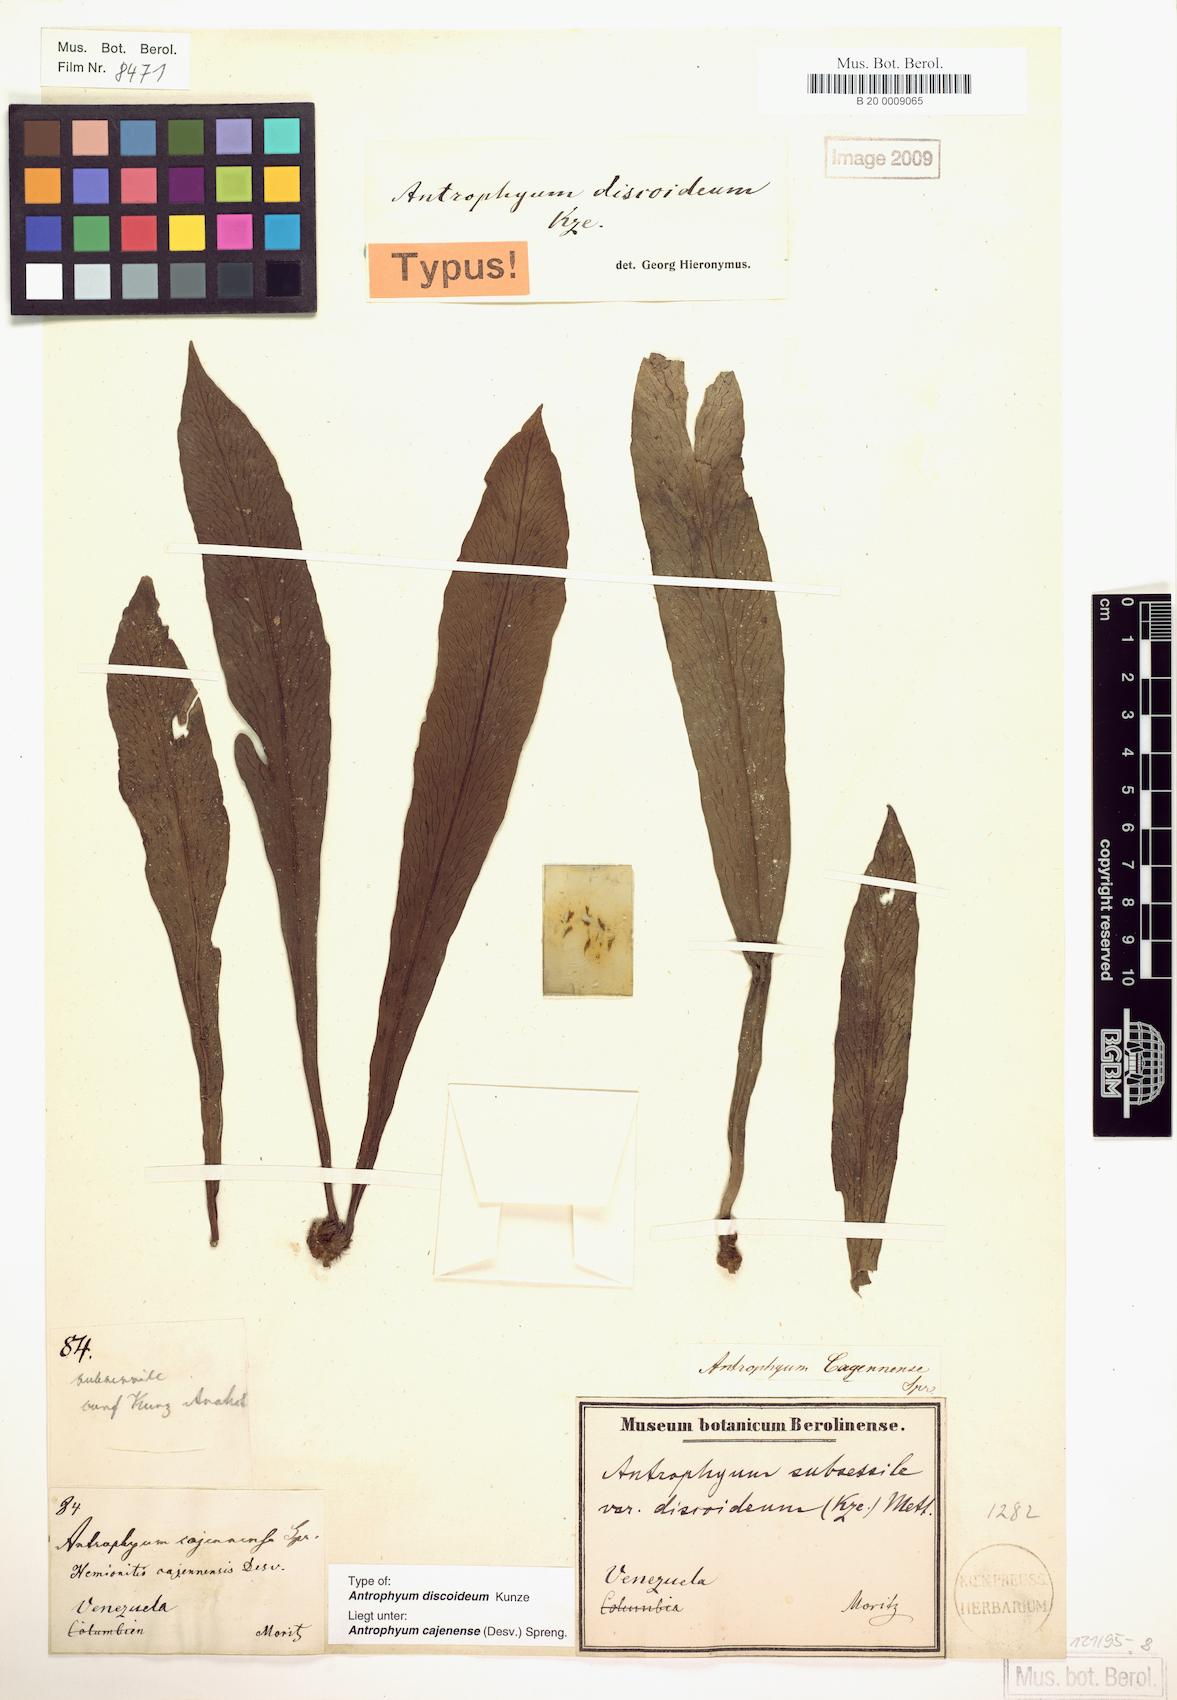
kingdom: Plantae
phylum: Tracheophyta
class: Polypodiopsida
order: Polypodiales
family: Pteridaceae
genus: Polytaenium
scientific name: Polytaenium cajenense
